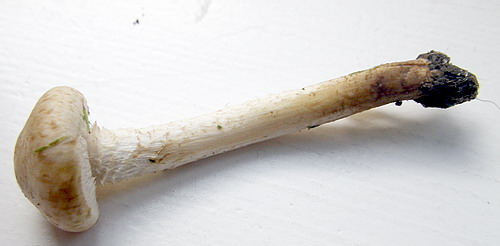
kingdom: Fungi
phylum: Basidiomycota
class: Agaricomycetes
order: Agaricales
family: Strophariaceae
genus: Pholiota
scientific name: Pholiota gummosa
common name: grøngul skælhat
